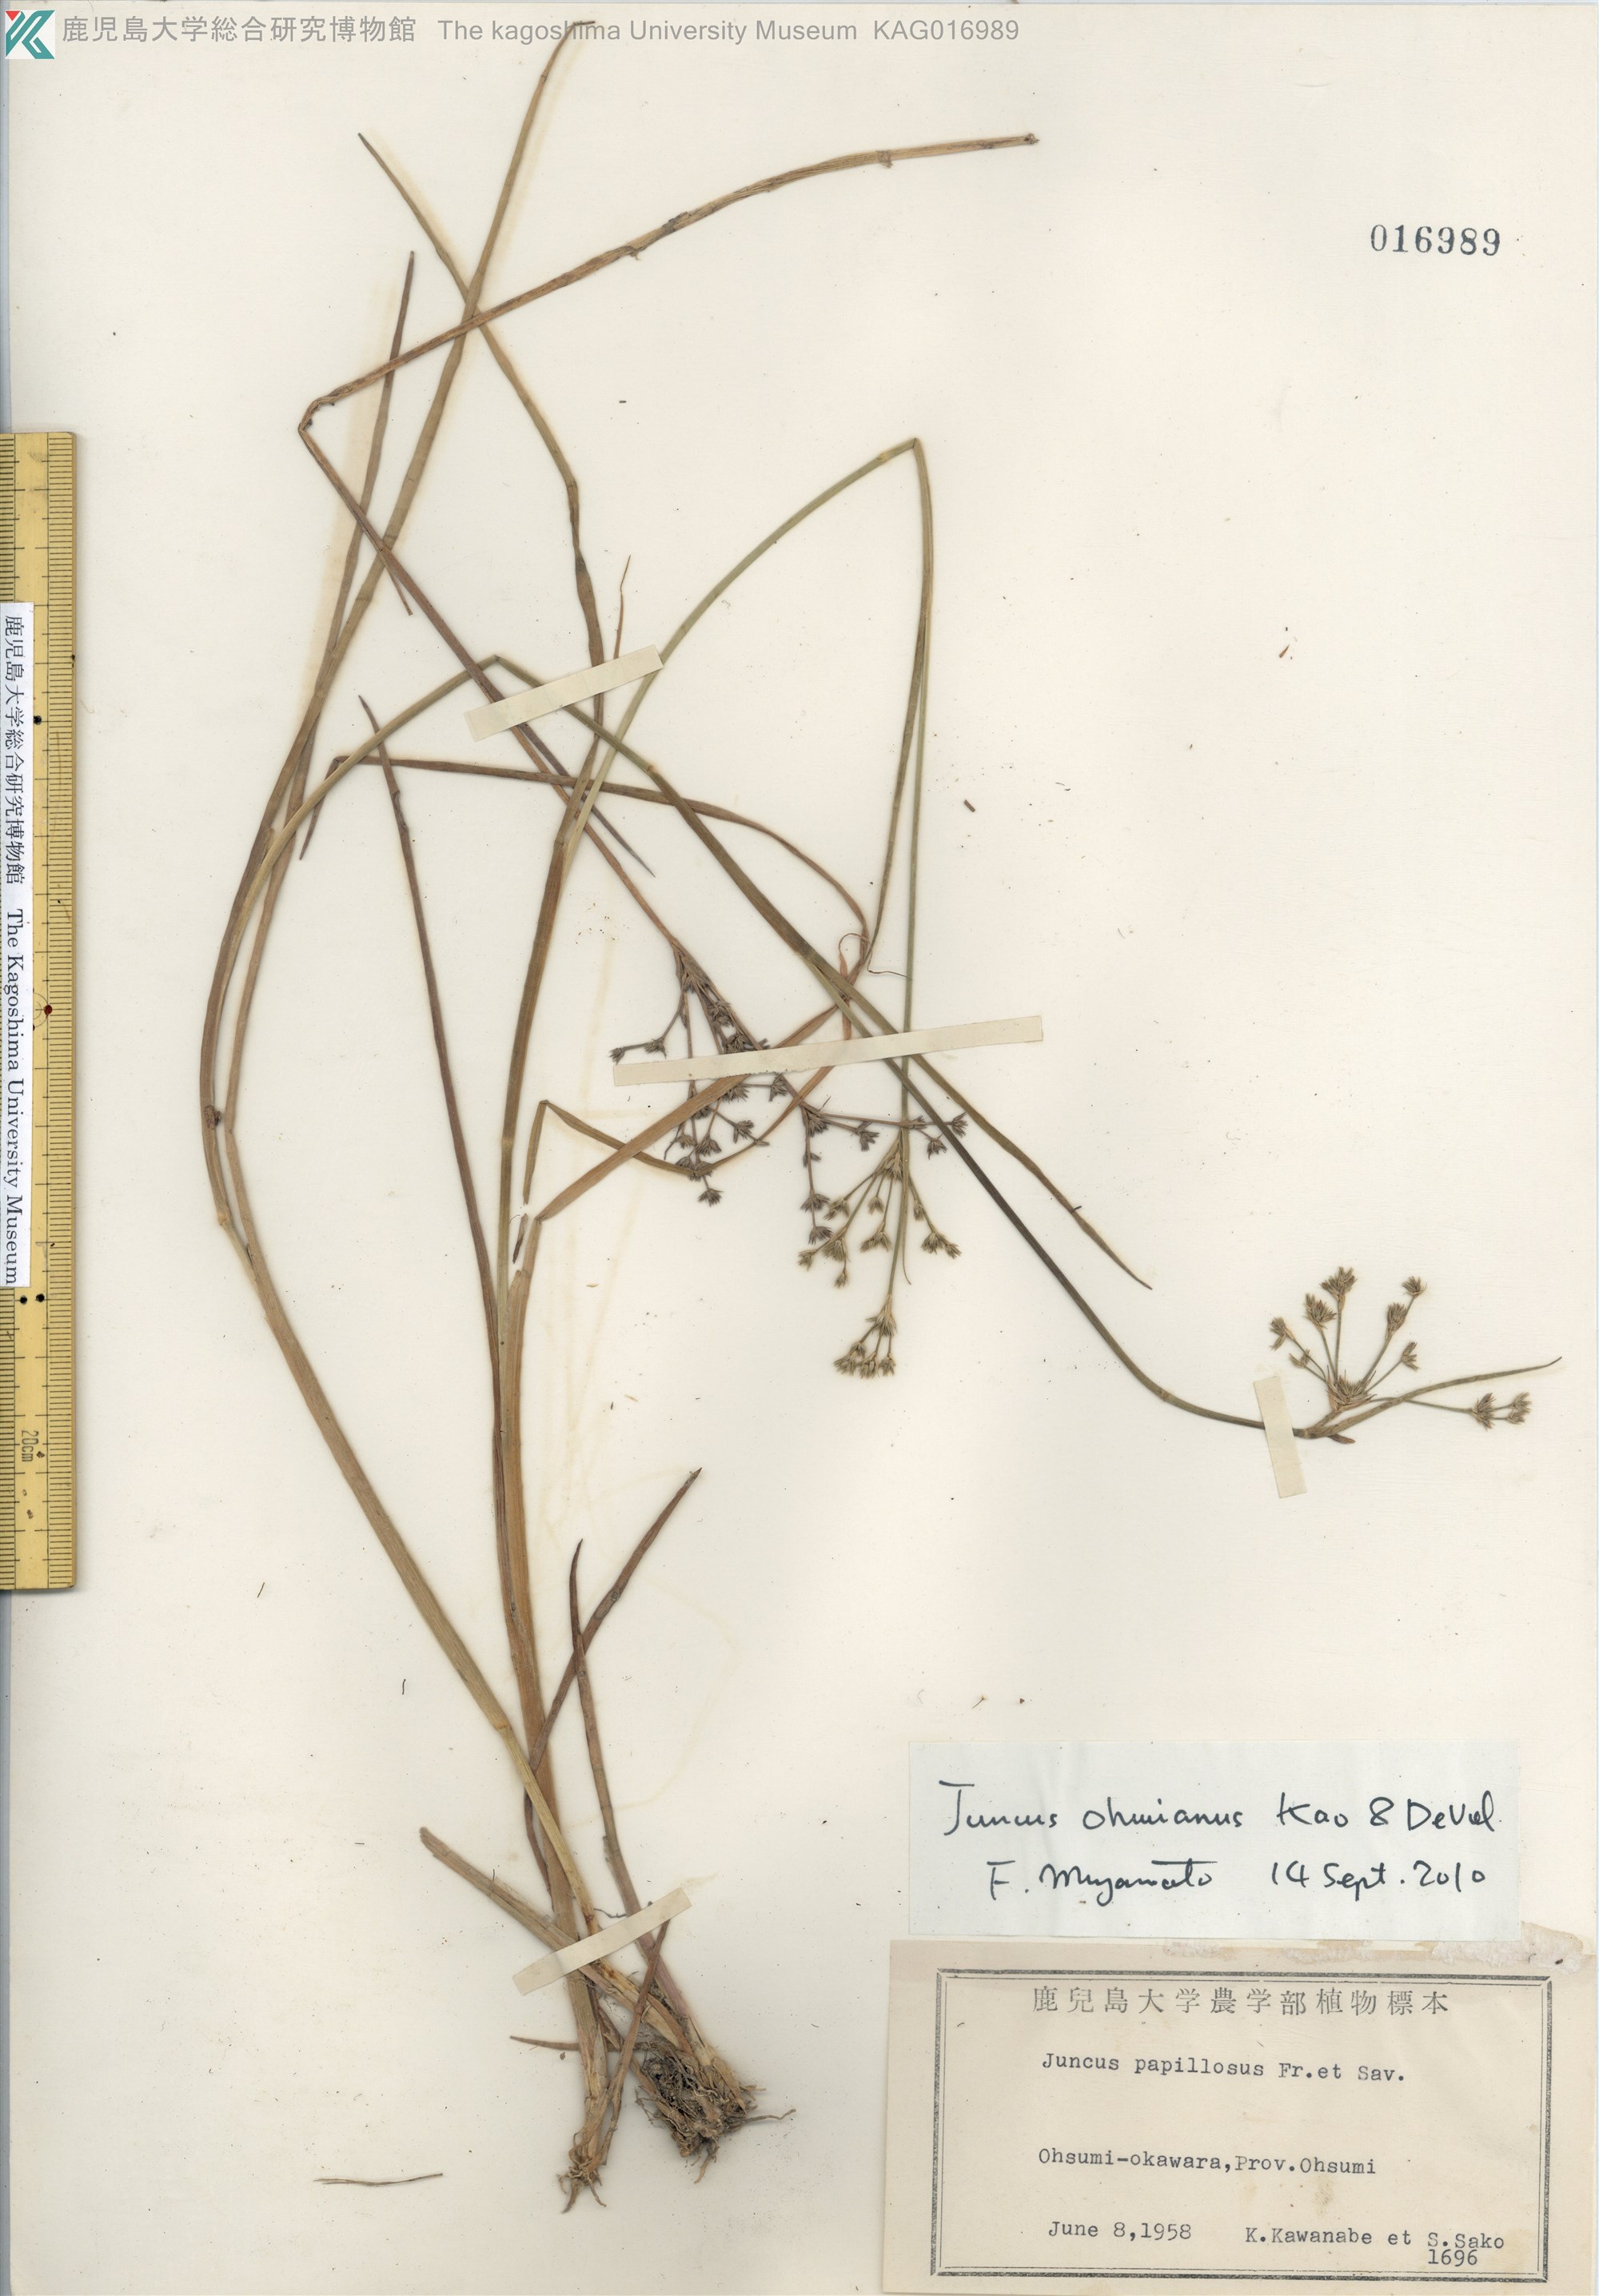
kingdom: Plantae
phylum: Tracheophyta
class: Liliopsida
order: Poales
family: Juncaceae
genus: Juncus
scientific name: Juncus wallichianus
